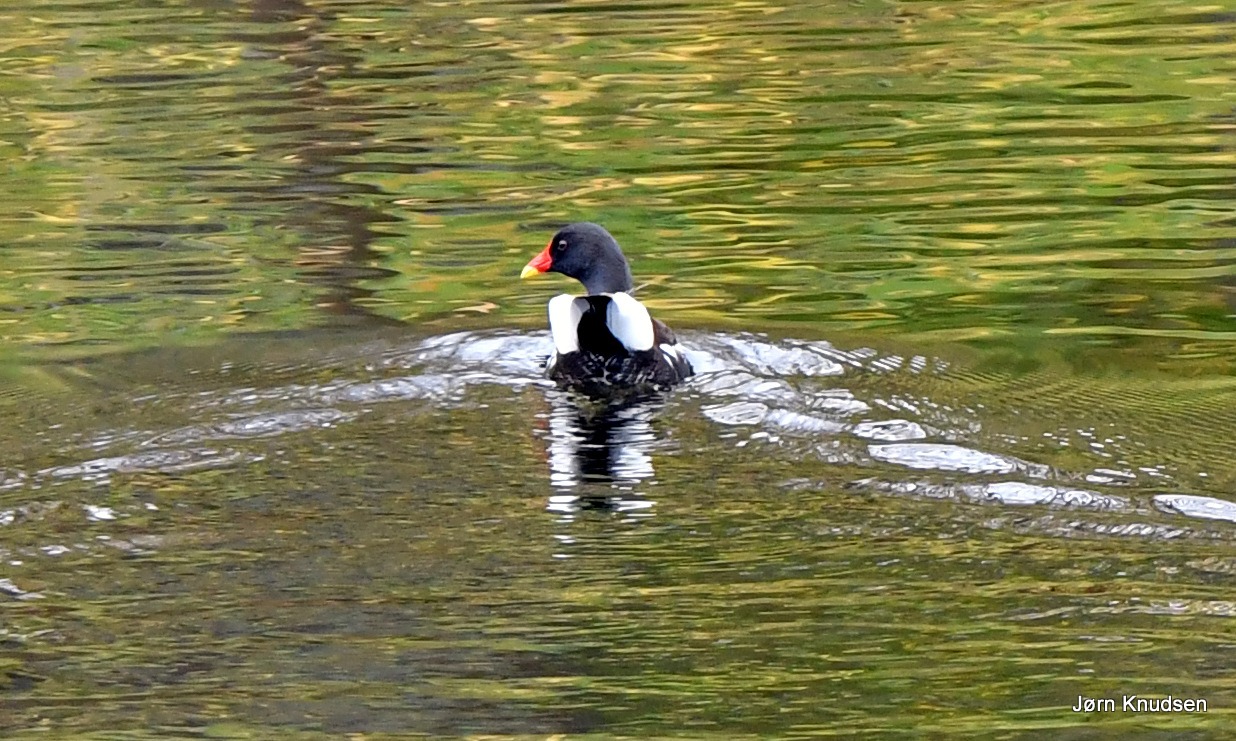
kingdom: Animalia
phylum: Chordata
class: Aves
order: Gruiformes
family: Rallidae
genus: Gallinula
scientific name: Gallinula chloropus
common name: Grønbenet rørhøne
